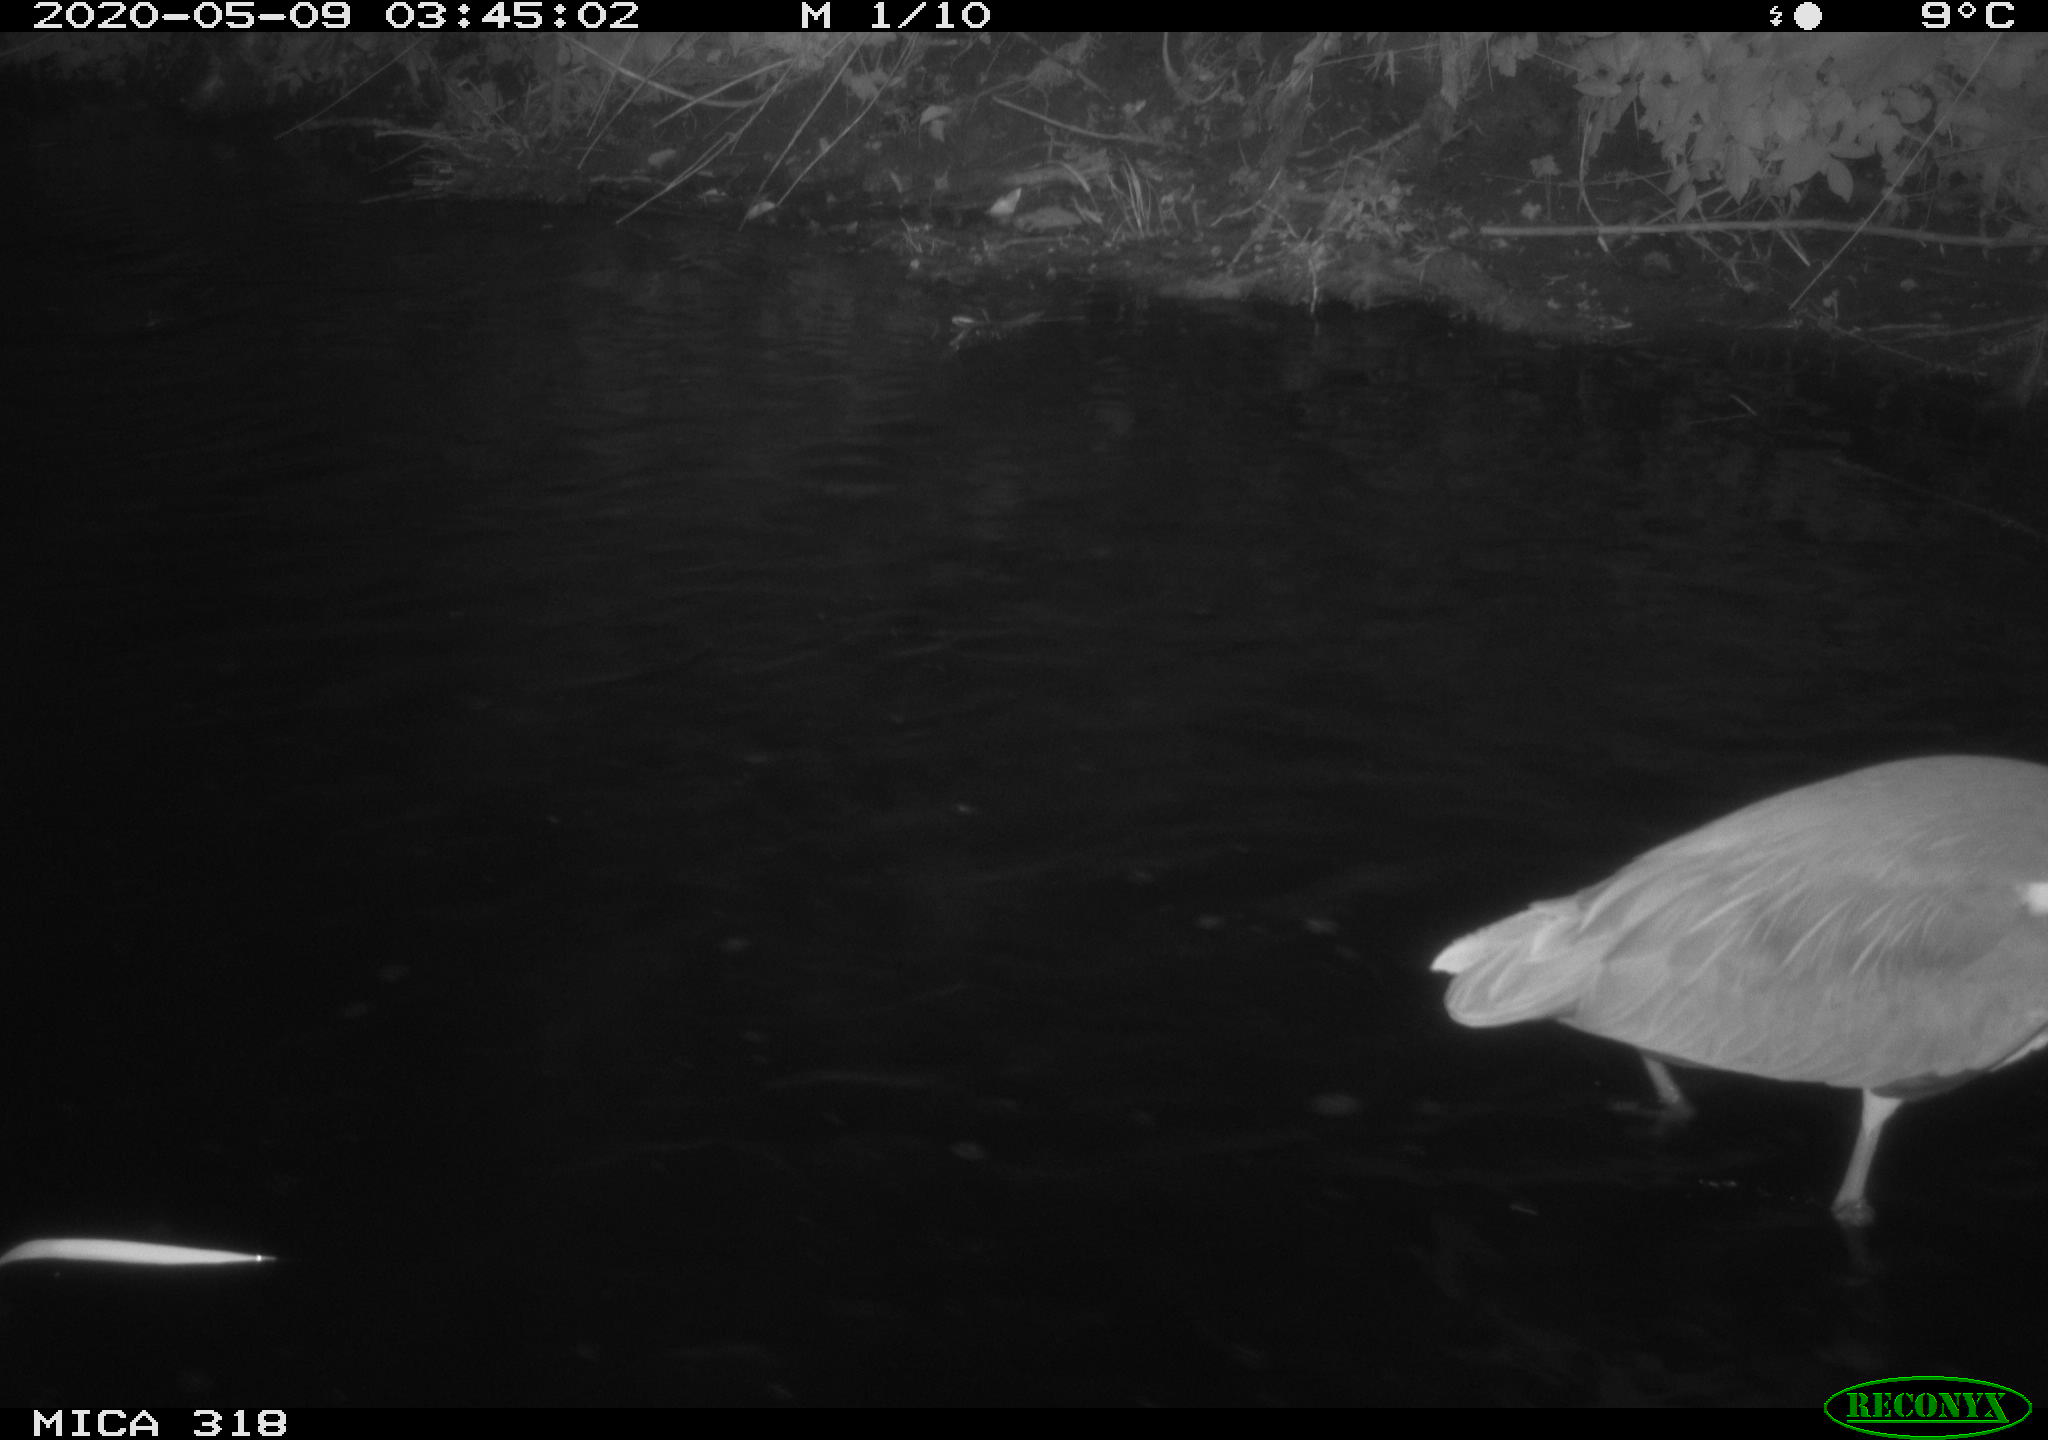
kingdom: Animalia
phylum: Chordata
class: Aves
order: Pelecaniformes
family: Ardeidae
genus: Ardea
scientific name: Ardea cinerea
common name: Grey heron
